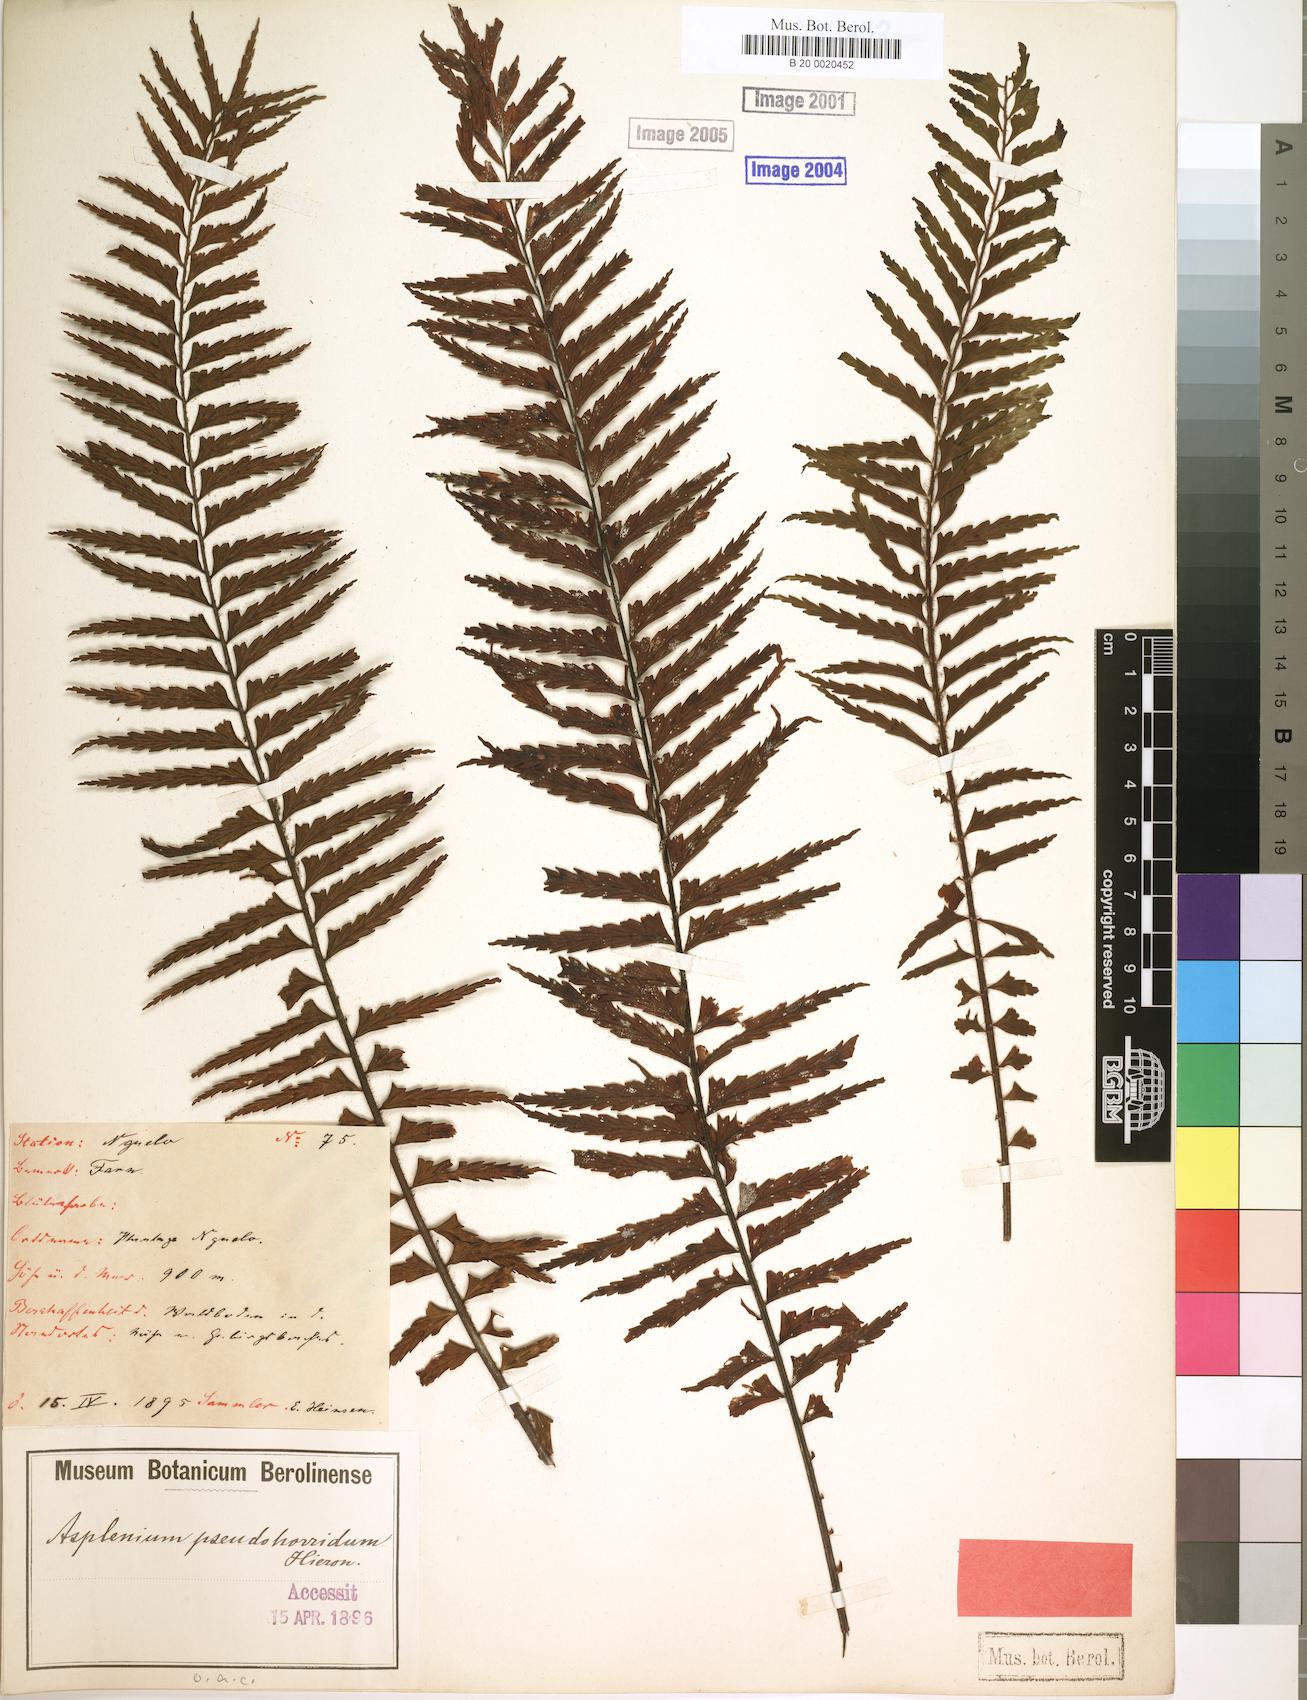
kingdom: Plantae
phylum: Tracheophyta
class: Polypodiopsida
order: Polypodiales
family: Aspleniaceae
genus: Asplenium
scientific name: Asplenium pellucidum
